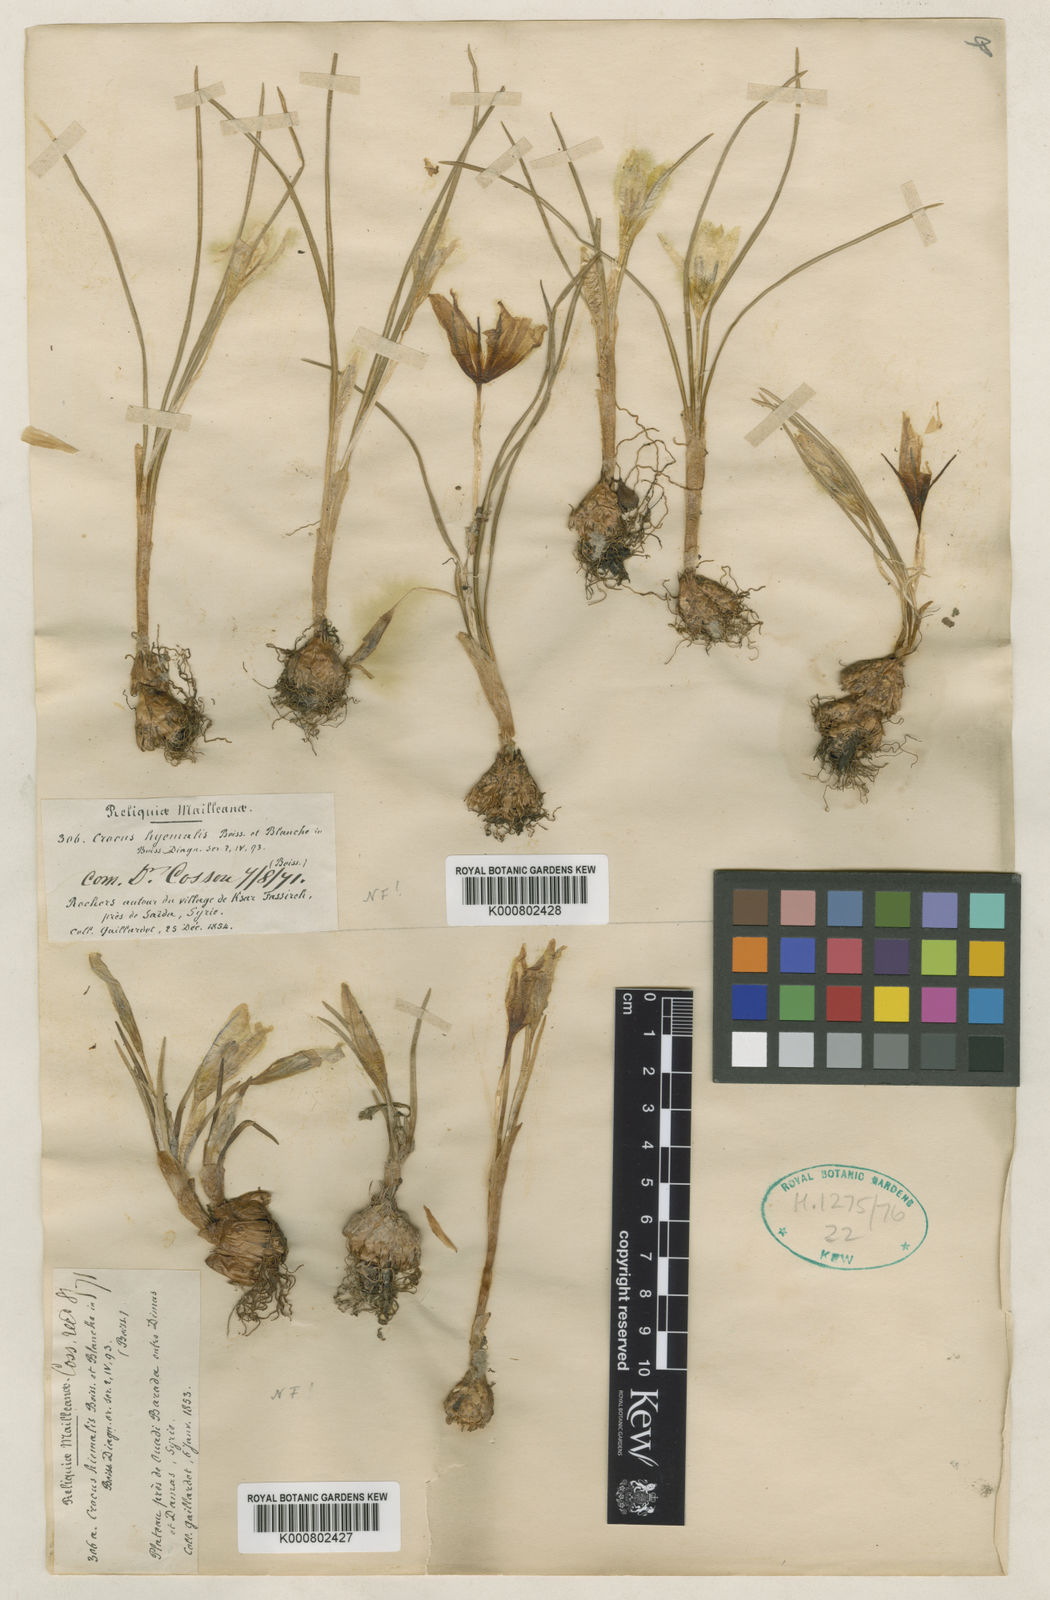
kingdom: Plantae
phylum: Tracheophyta
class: Liliopsida
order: Asparagales
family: Iridaceae
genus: Crocus
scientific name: Crocus hyemalis
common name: Winter crocus
